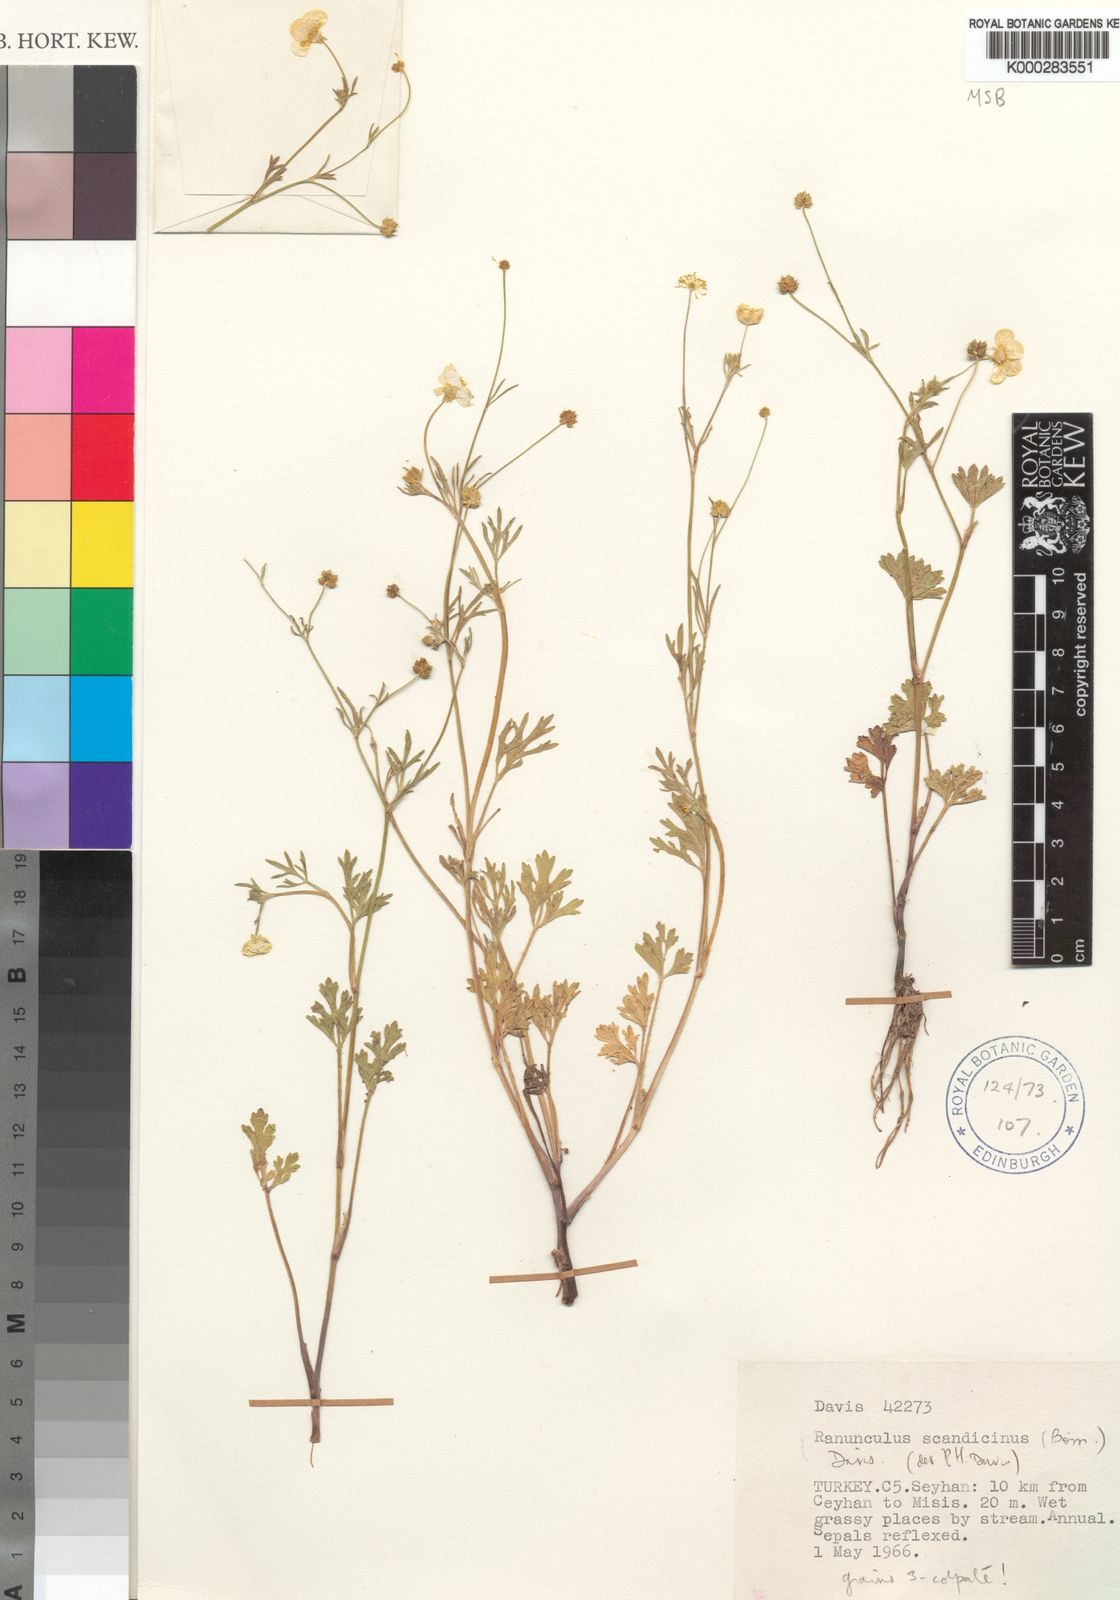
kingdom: Plantae
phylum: Tracheophyta
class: Magnoliopsida
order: Ranunculales
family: Ranunculaceae
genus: Ranunculus
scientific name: Ranunculus cornutus
